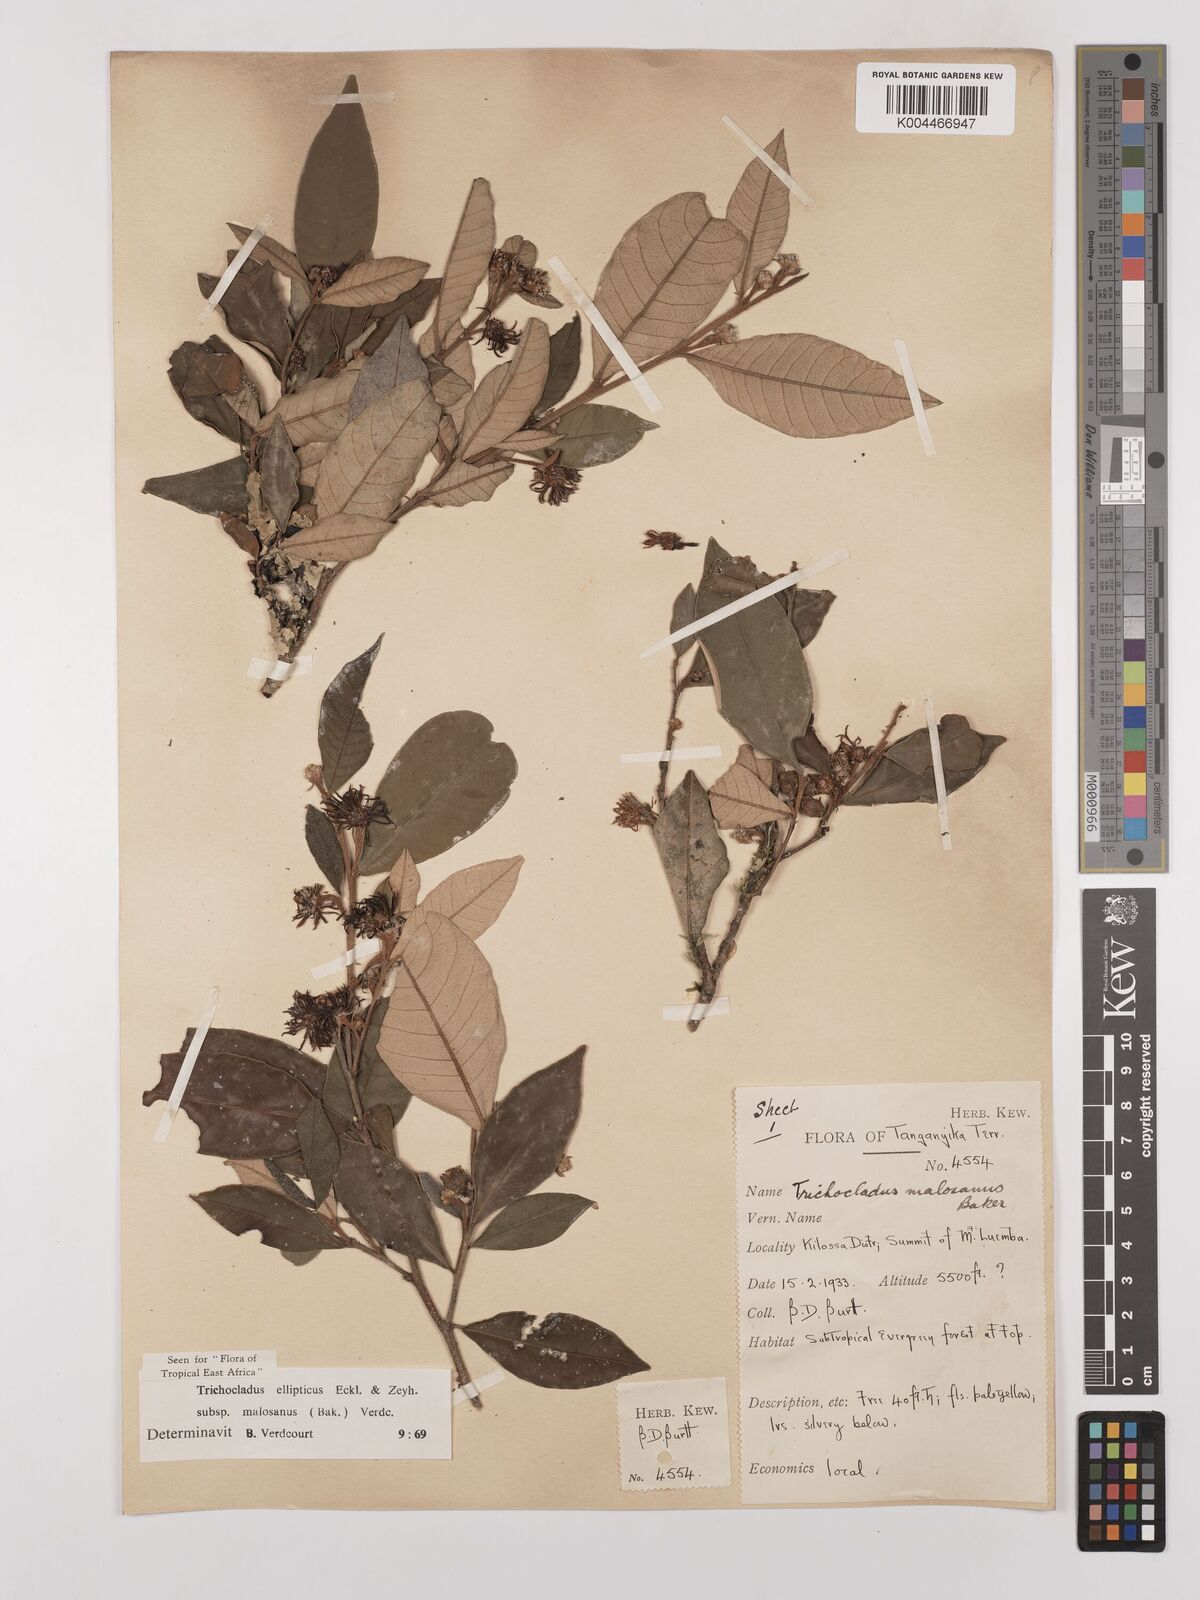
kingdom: Plantae
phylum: Tracheophyta
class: Magnoliopsida
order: Saxifragales
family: Hamamelidaceae
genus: Trichocladus
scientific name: Trichocladus ellipticus
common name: White witch-hazel
